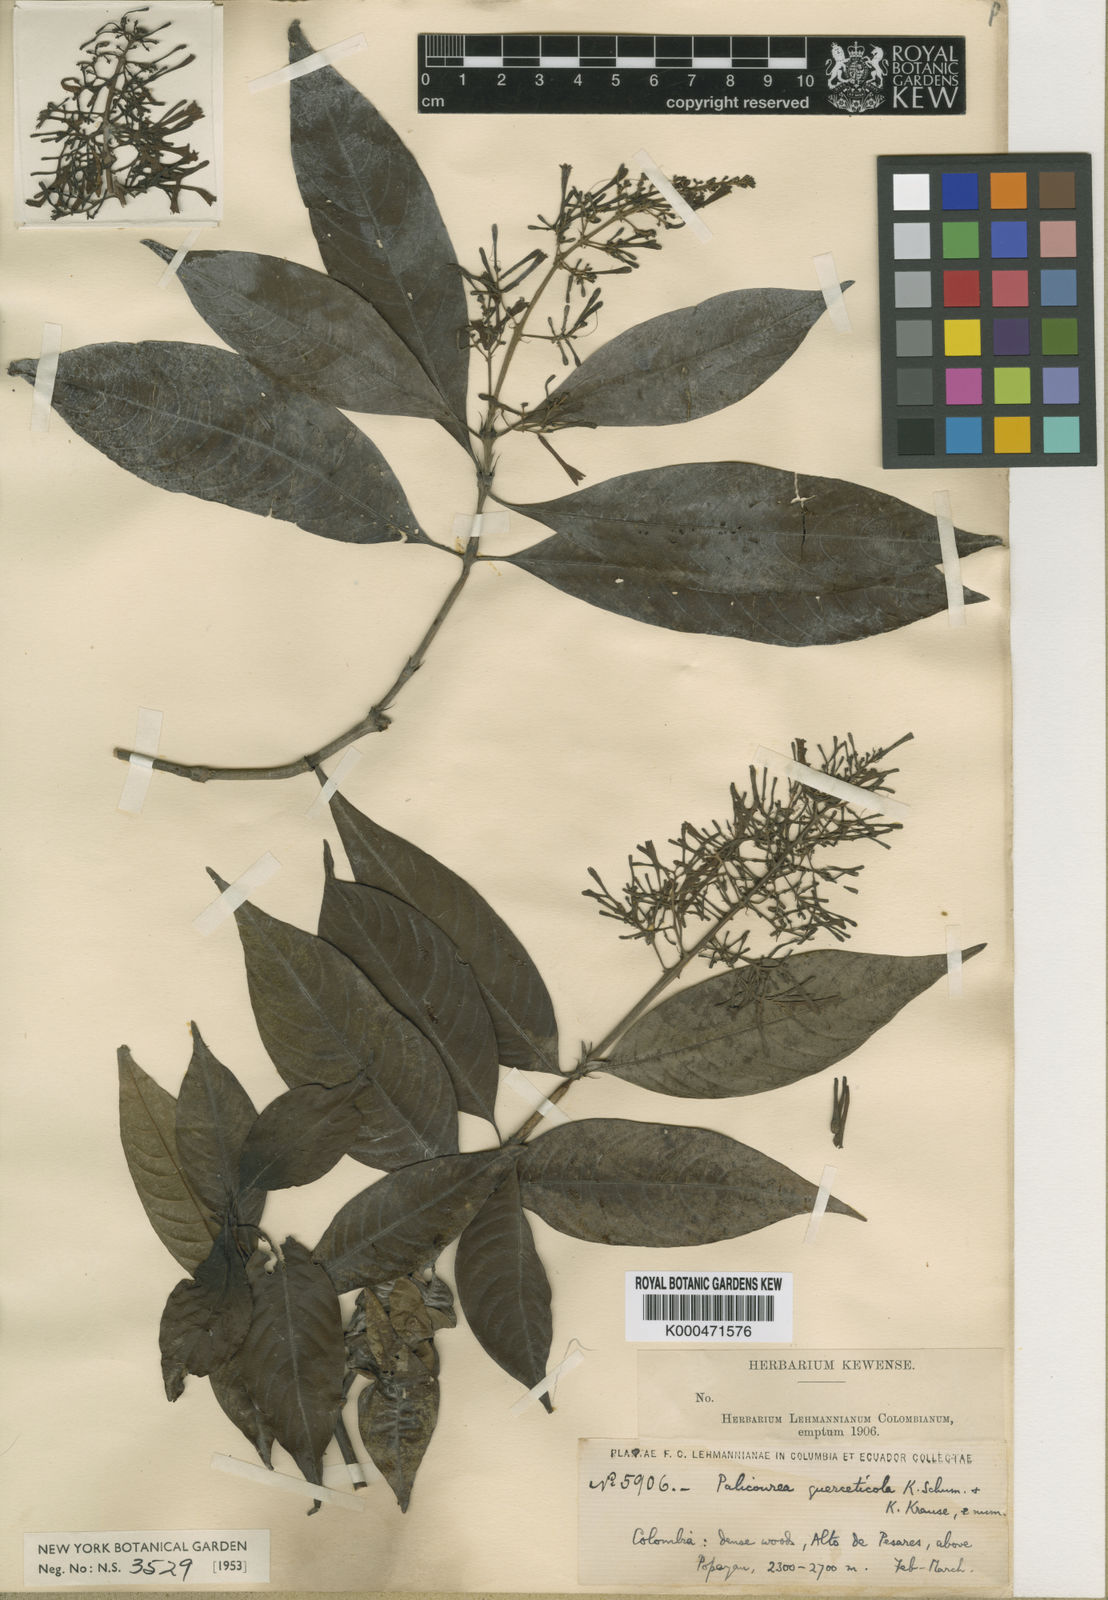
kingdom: Plantae
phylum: Tracheophyta
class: Magnoliopsida
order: Gentianales
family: Rubiaceae
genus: Palicourea
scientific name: Palicourea angustifolia
